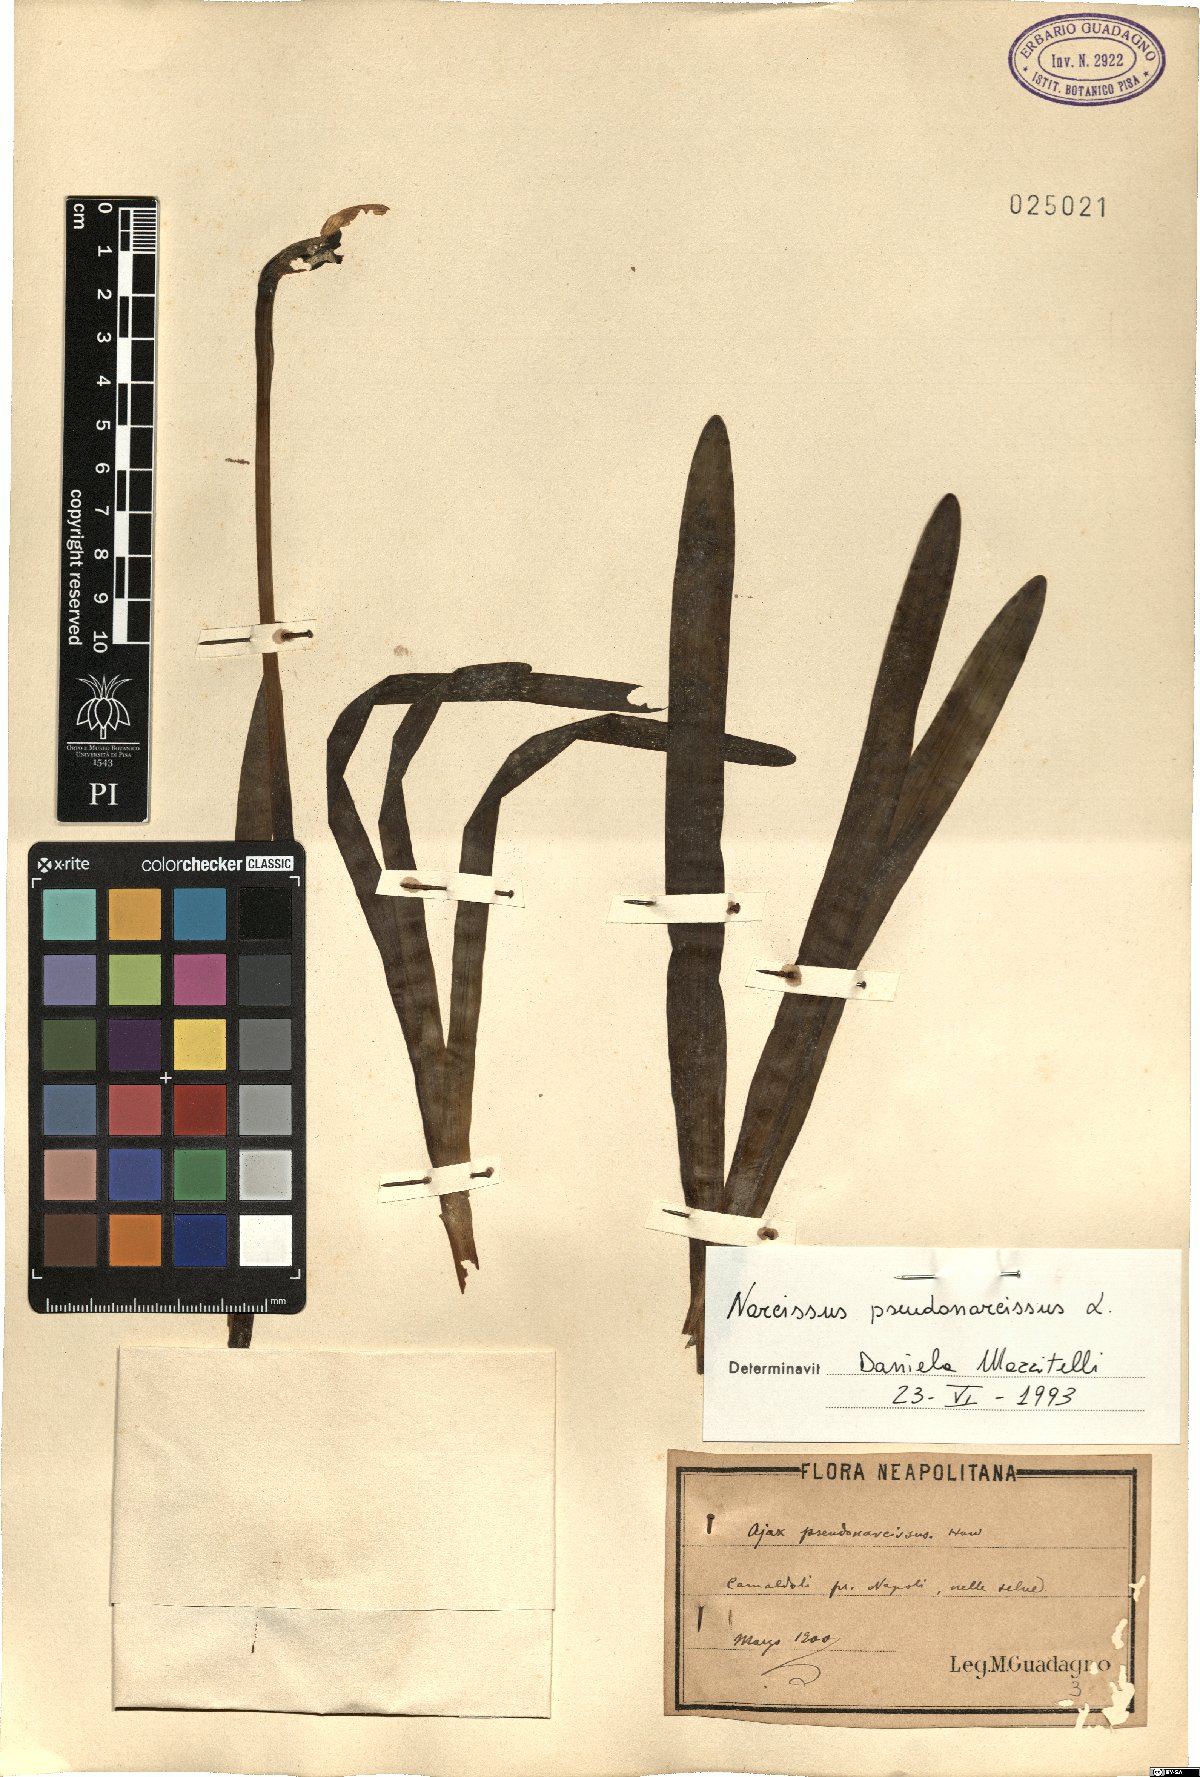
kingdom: Plantae
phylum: Tracheophyta
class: Liliopsida
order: Asparagales
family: Amaryllidaceae
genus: Narcissus
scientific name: Narcissus pseudonarcissus
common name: Daffodil
